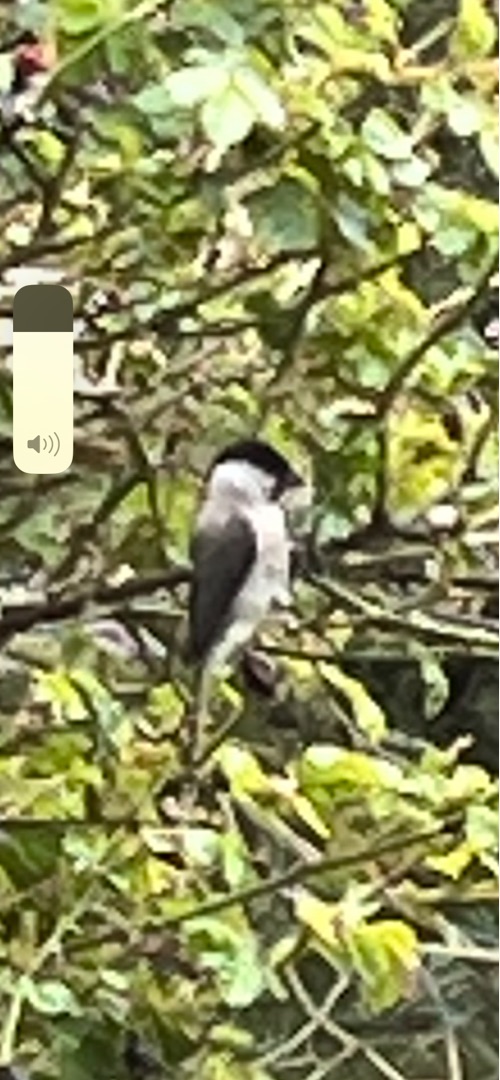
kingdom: Animalia
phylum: Chordata
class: Aves
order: Passeriformes
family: Paridae
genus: Poecile
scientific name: Poecile palustris
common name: Sumpmejse
